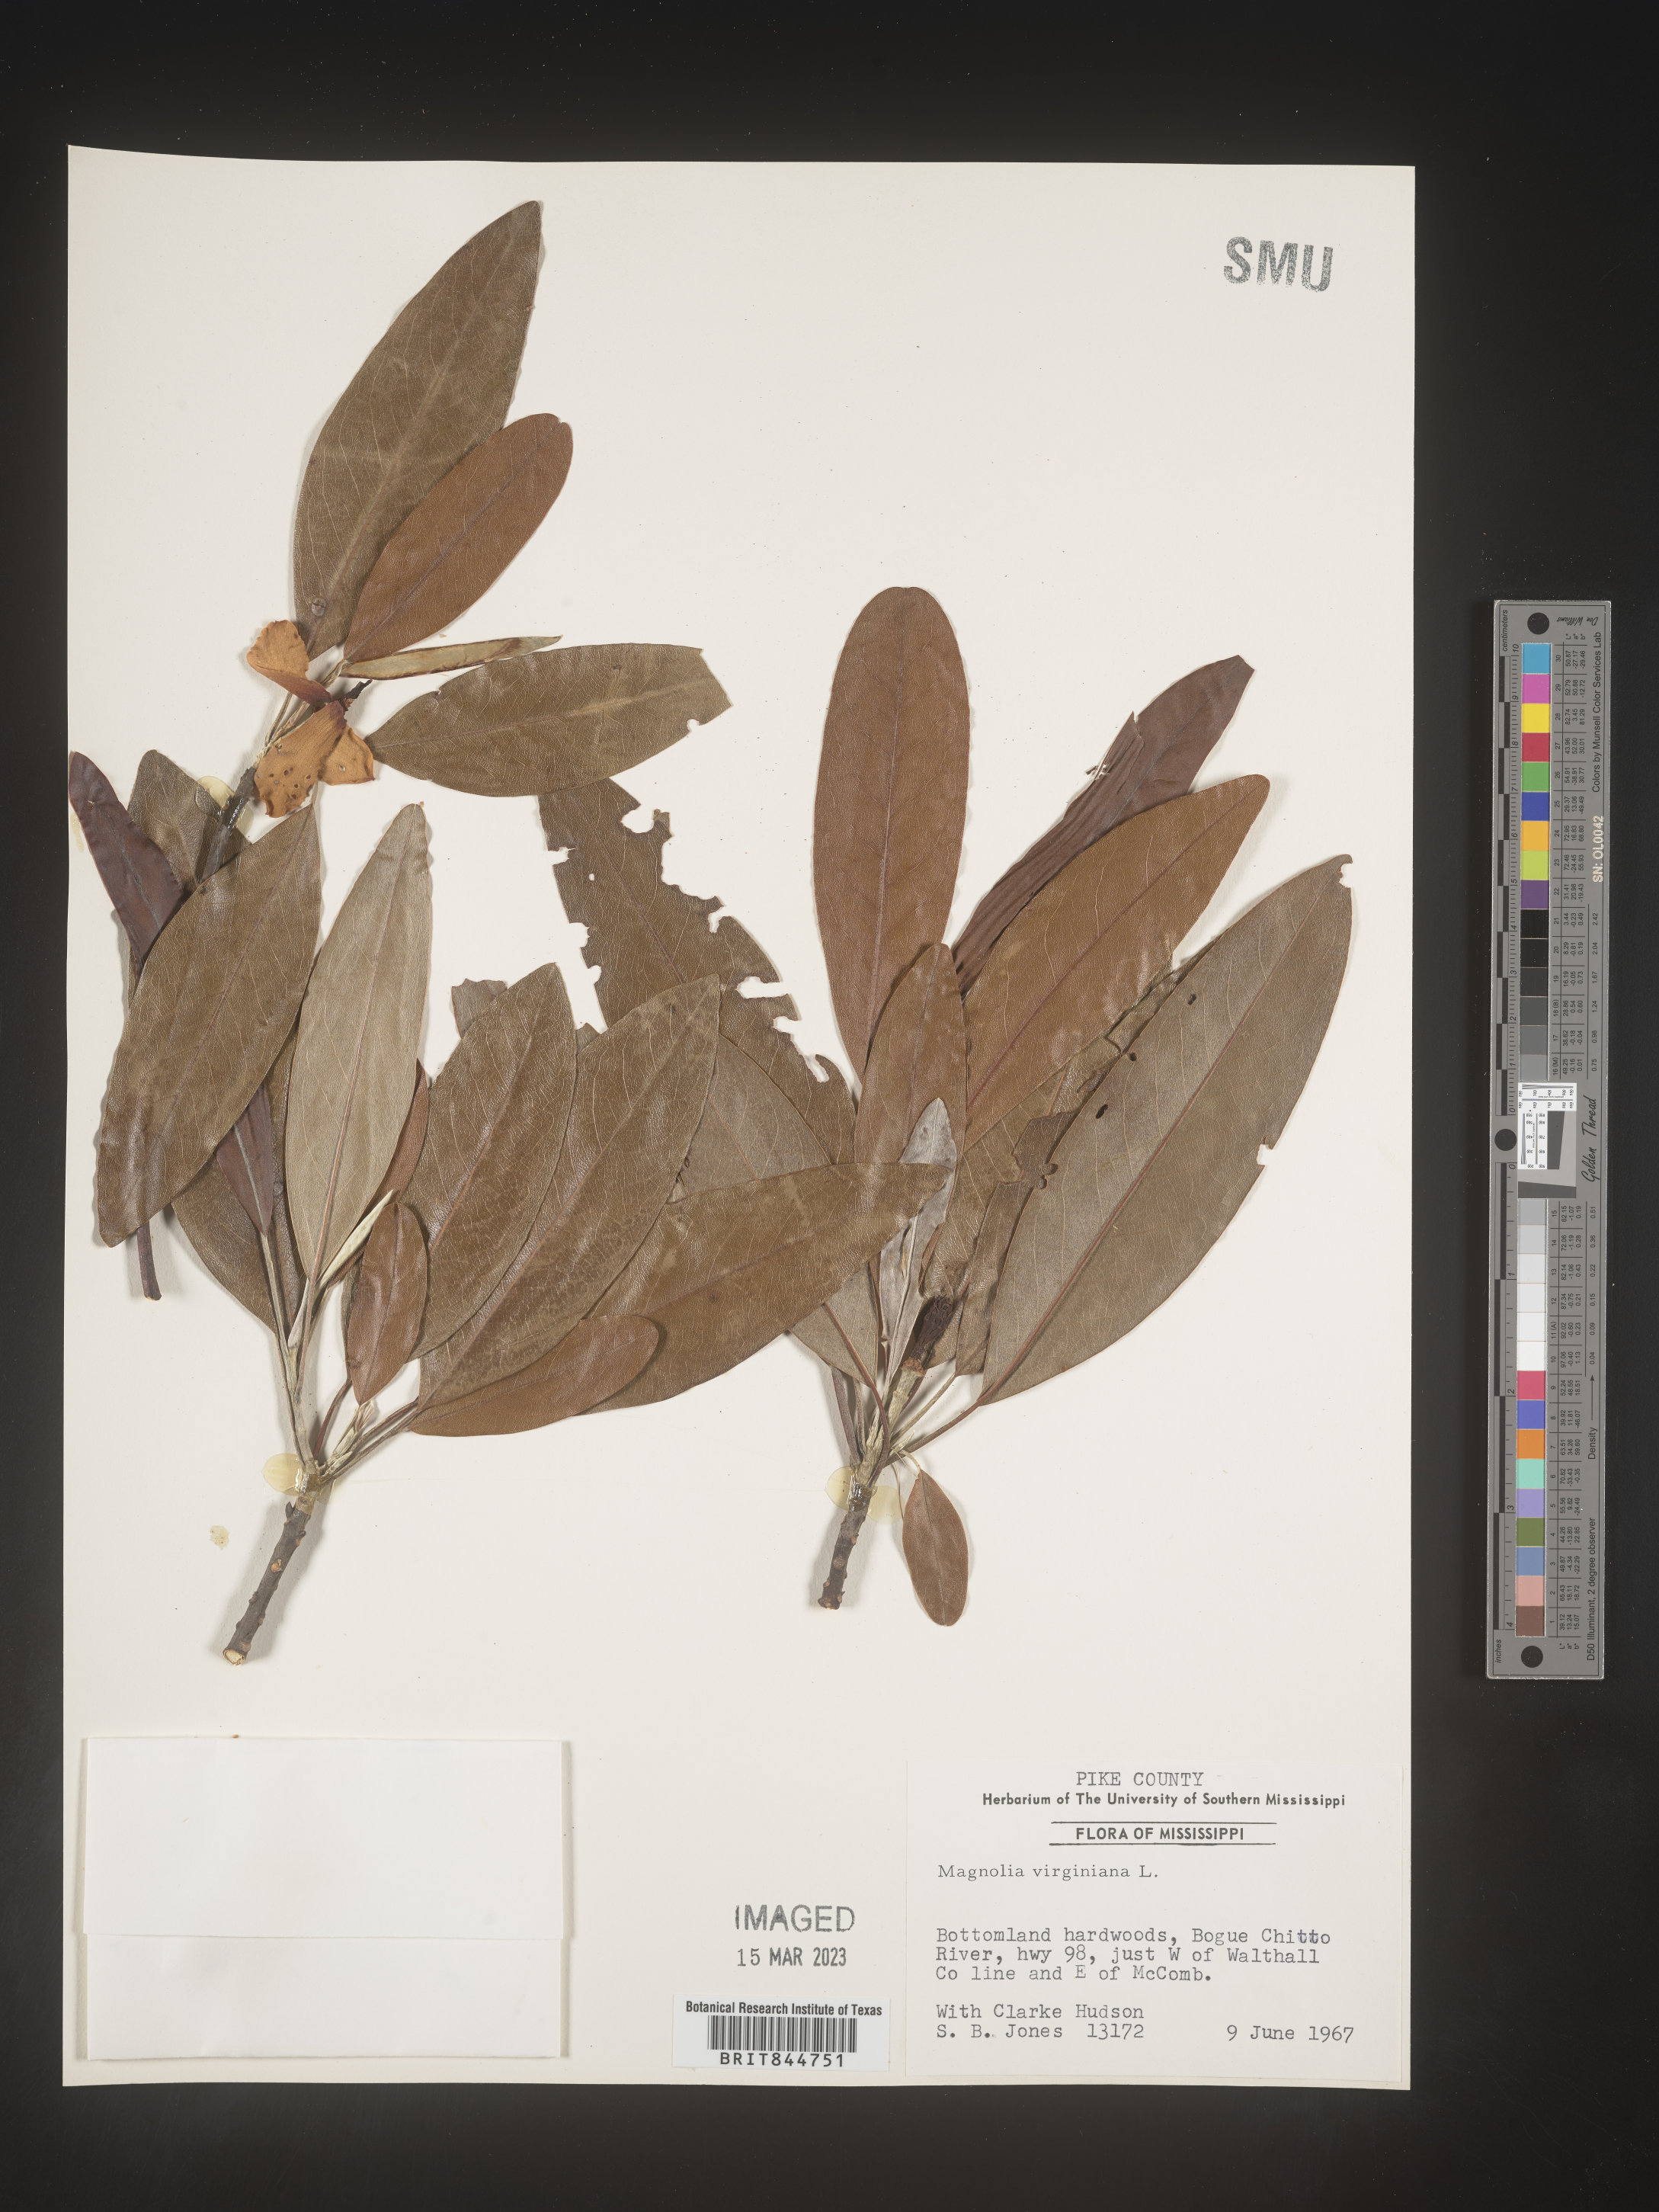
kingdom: Plantae
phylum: Tracheophyta
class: Magnoliopsida
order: Magnoliales
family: Magnoliaceae
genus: Magnolia
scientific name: Magnolia virginiana
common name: Swamp bay
